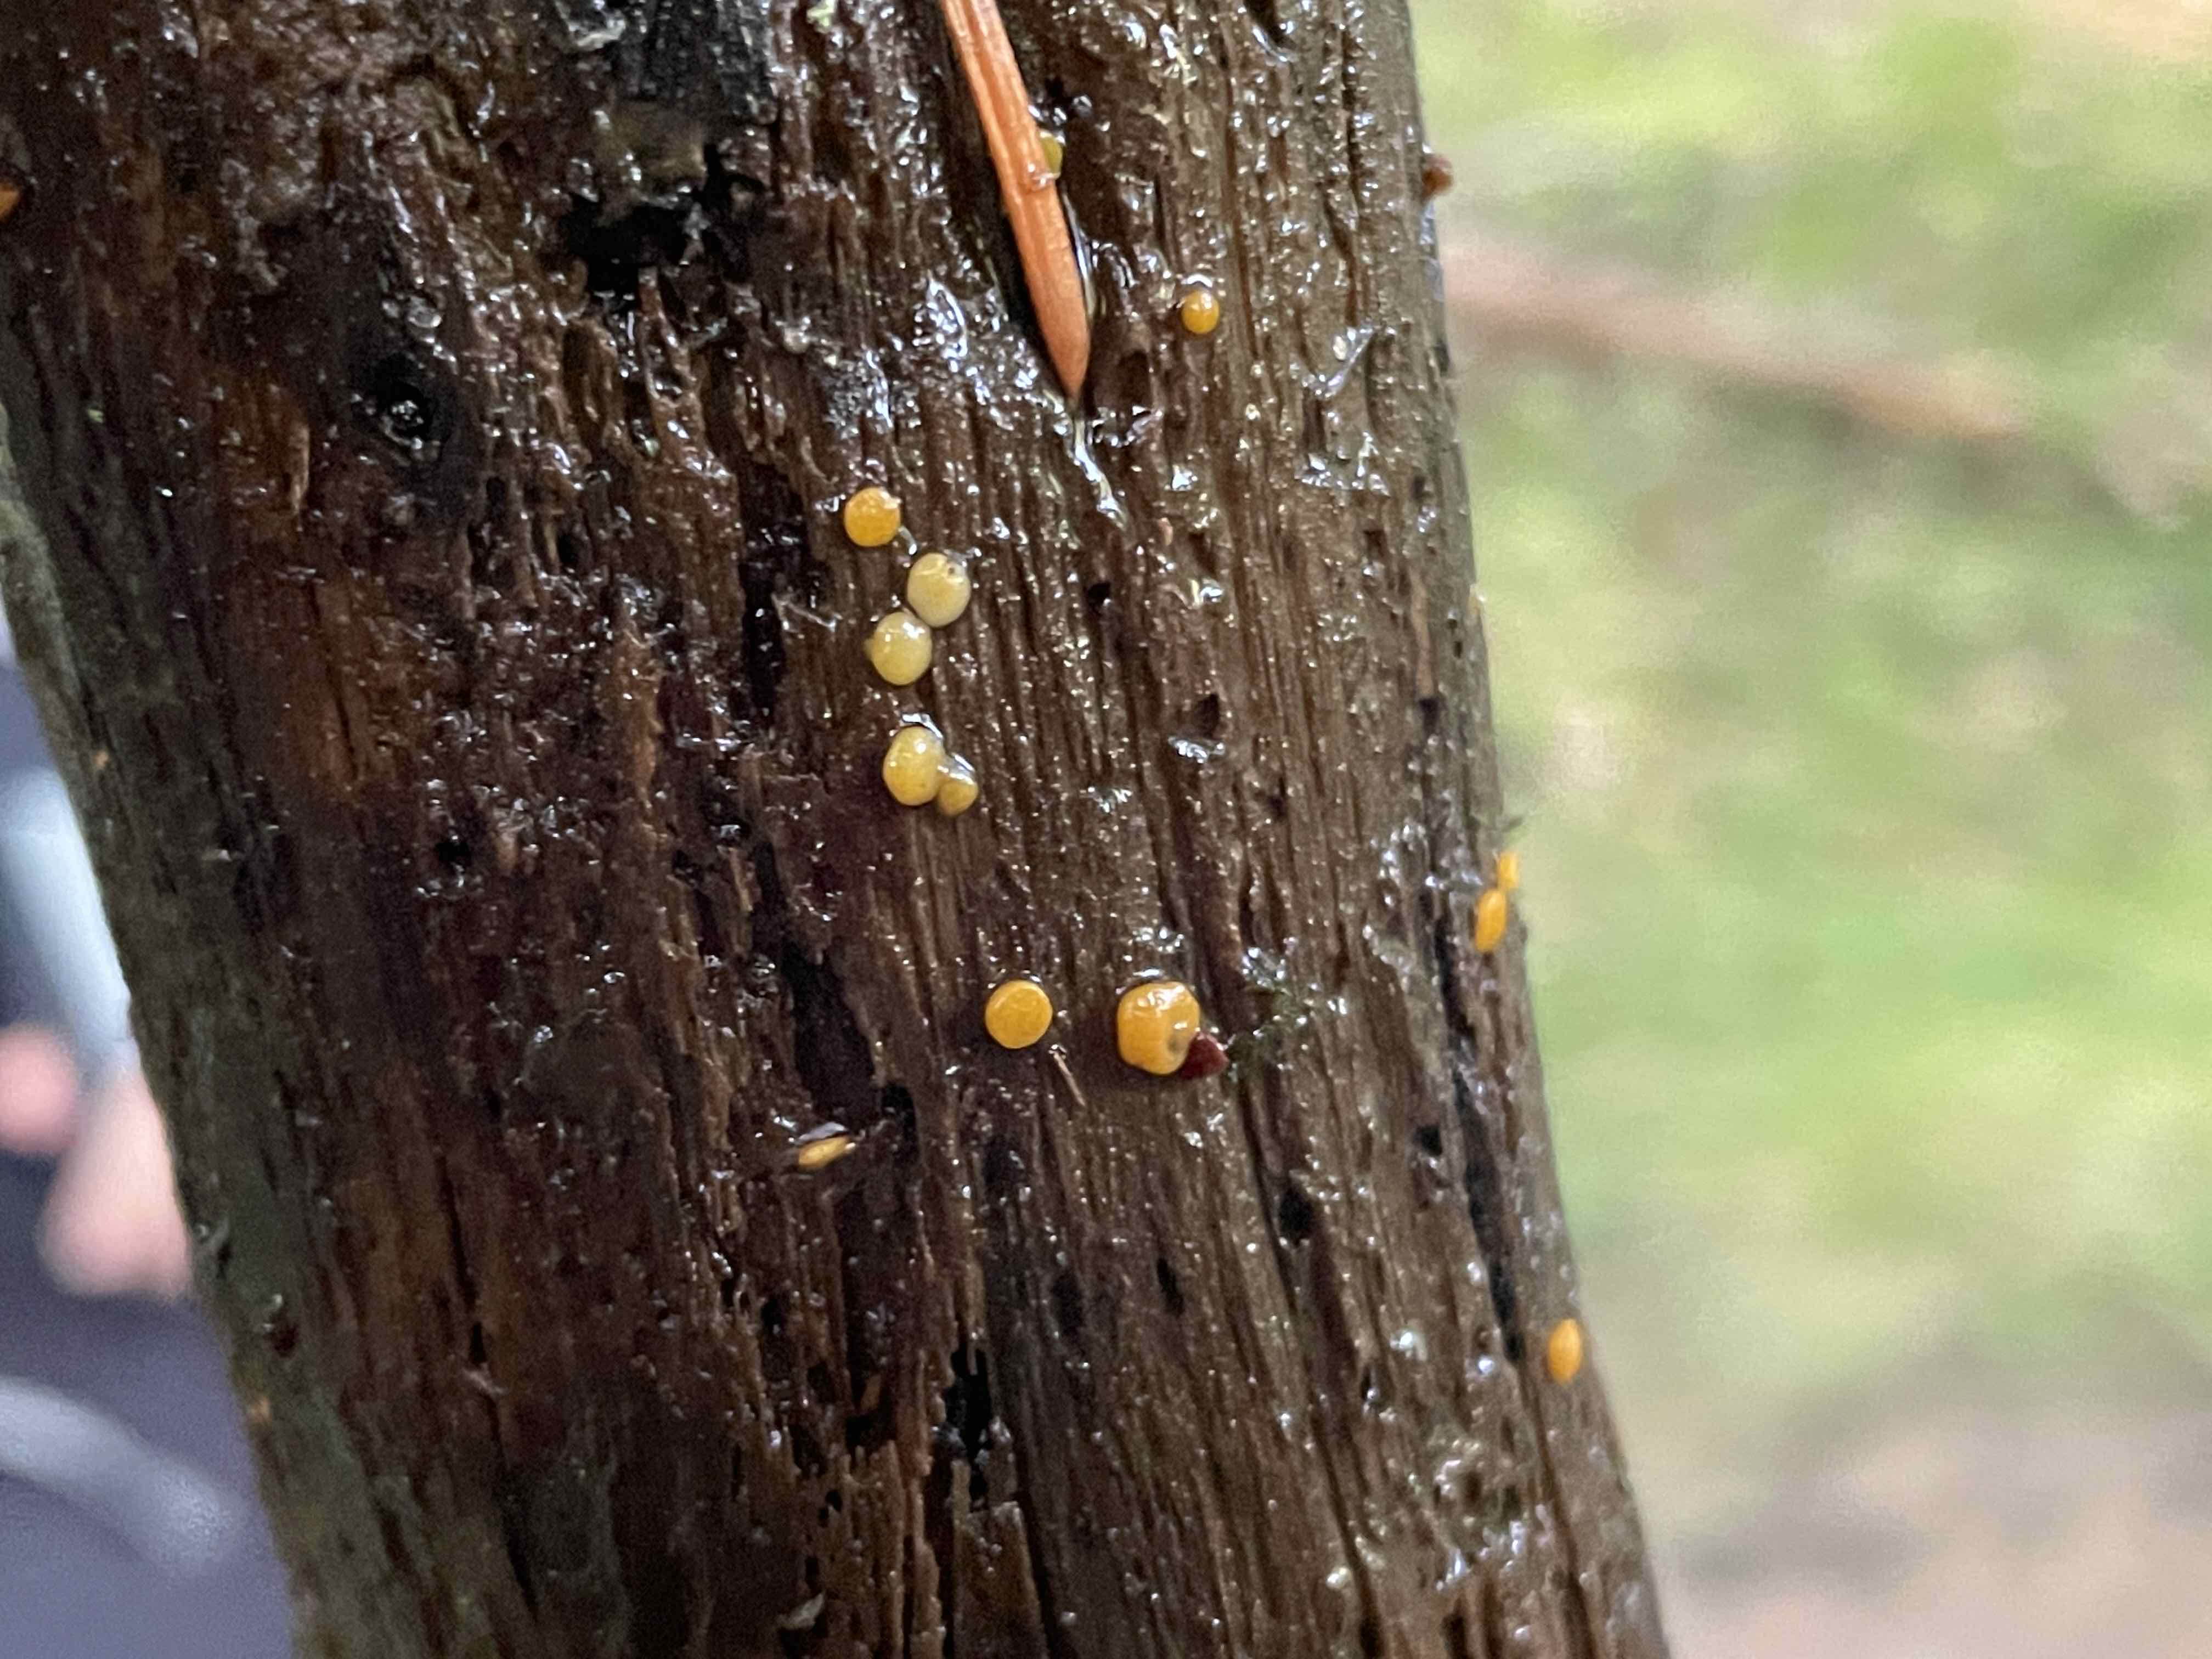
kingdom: Fungi
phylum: Ascomycota
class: Pezizomycetes
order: Pezizales
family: Pyronemataceae
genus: Miladina
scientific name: Miladina lecithina
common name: vandbæger
